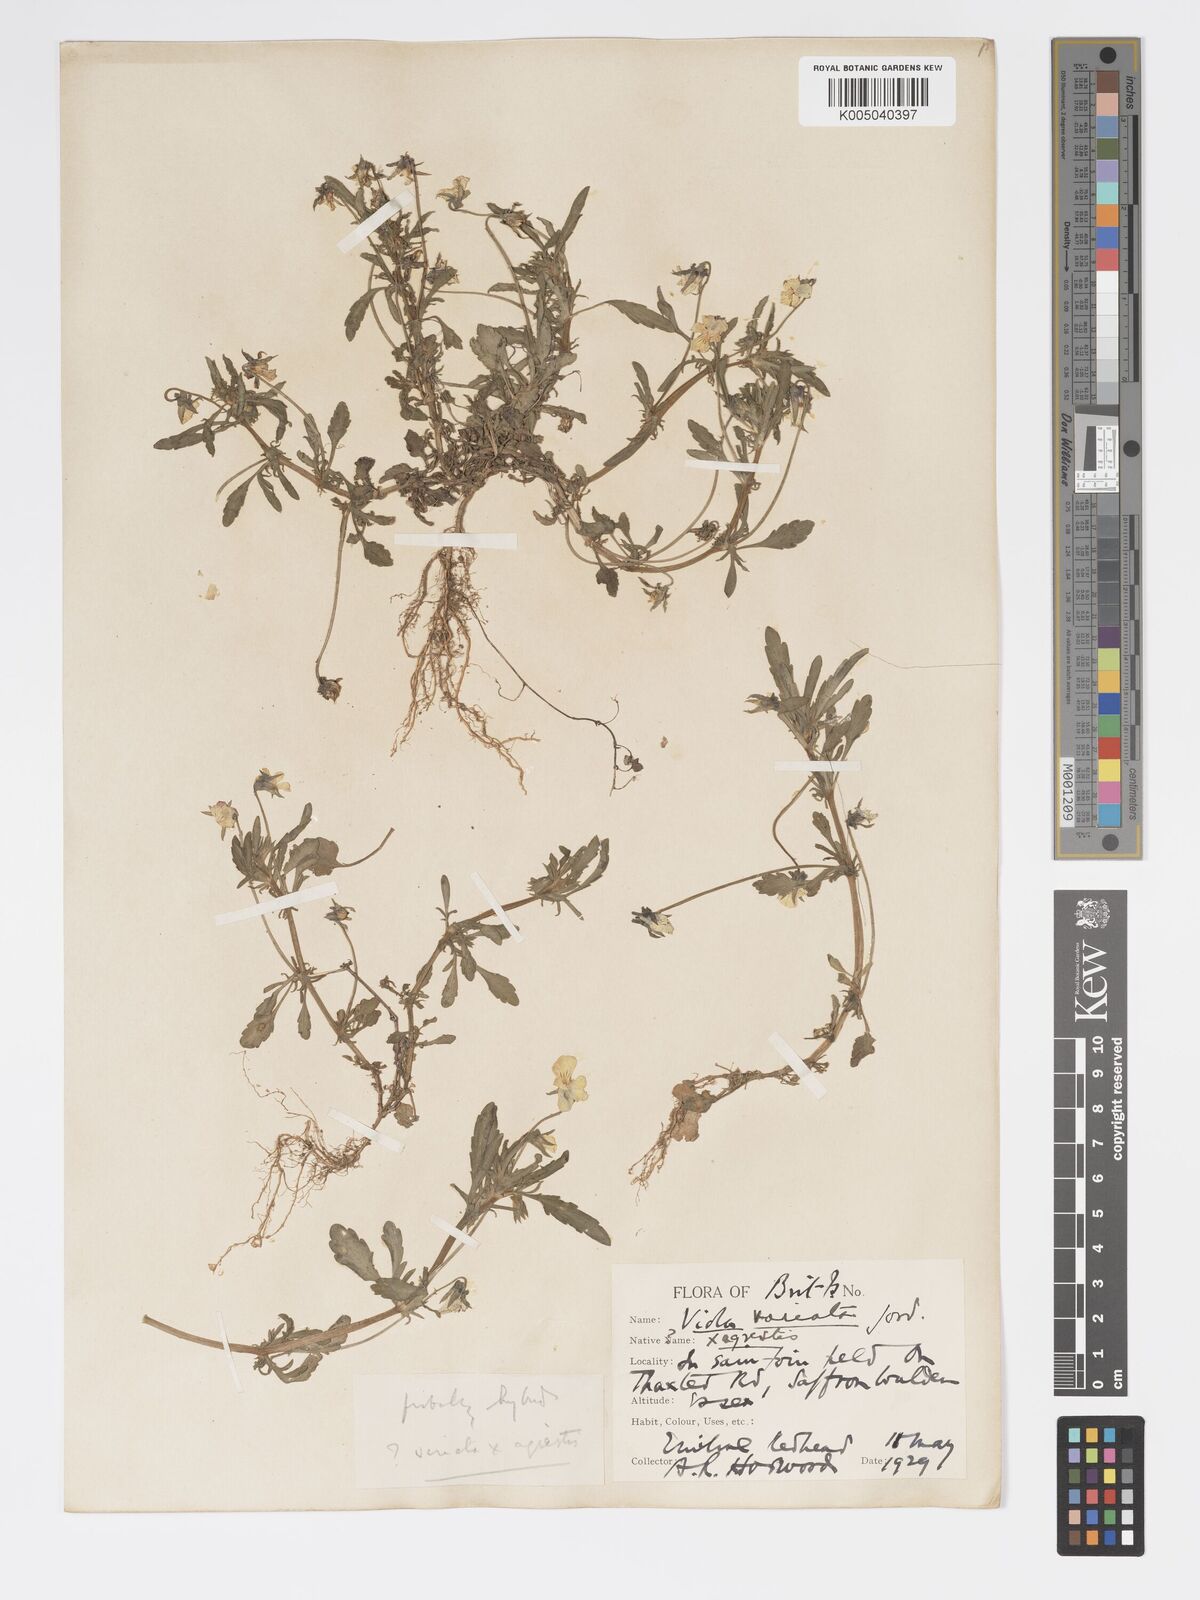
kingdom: Plantae
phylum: Tracheophyta
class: Magnoliopsida
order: Malpighiales
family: Violaceae
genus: Viola
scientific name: Viola arvensis
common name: Field pansy
